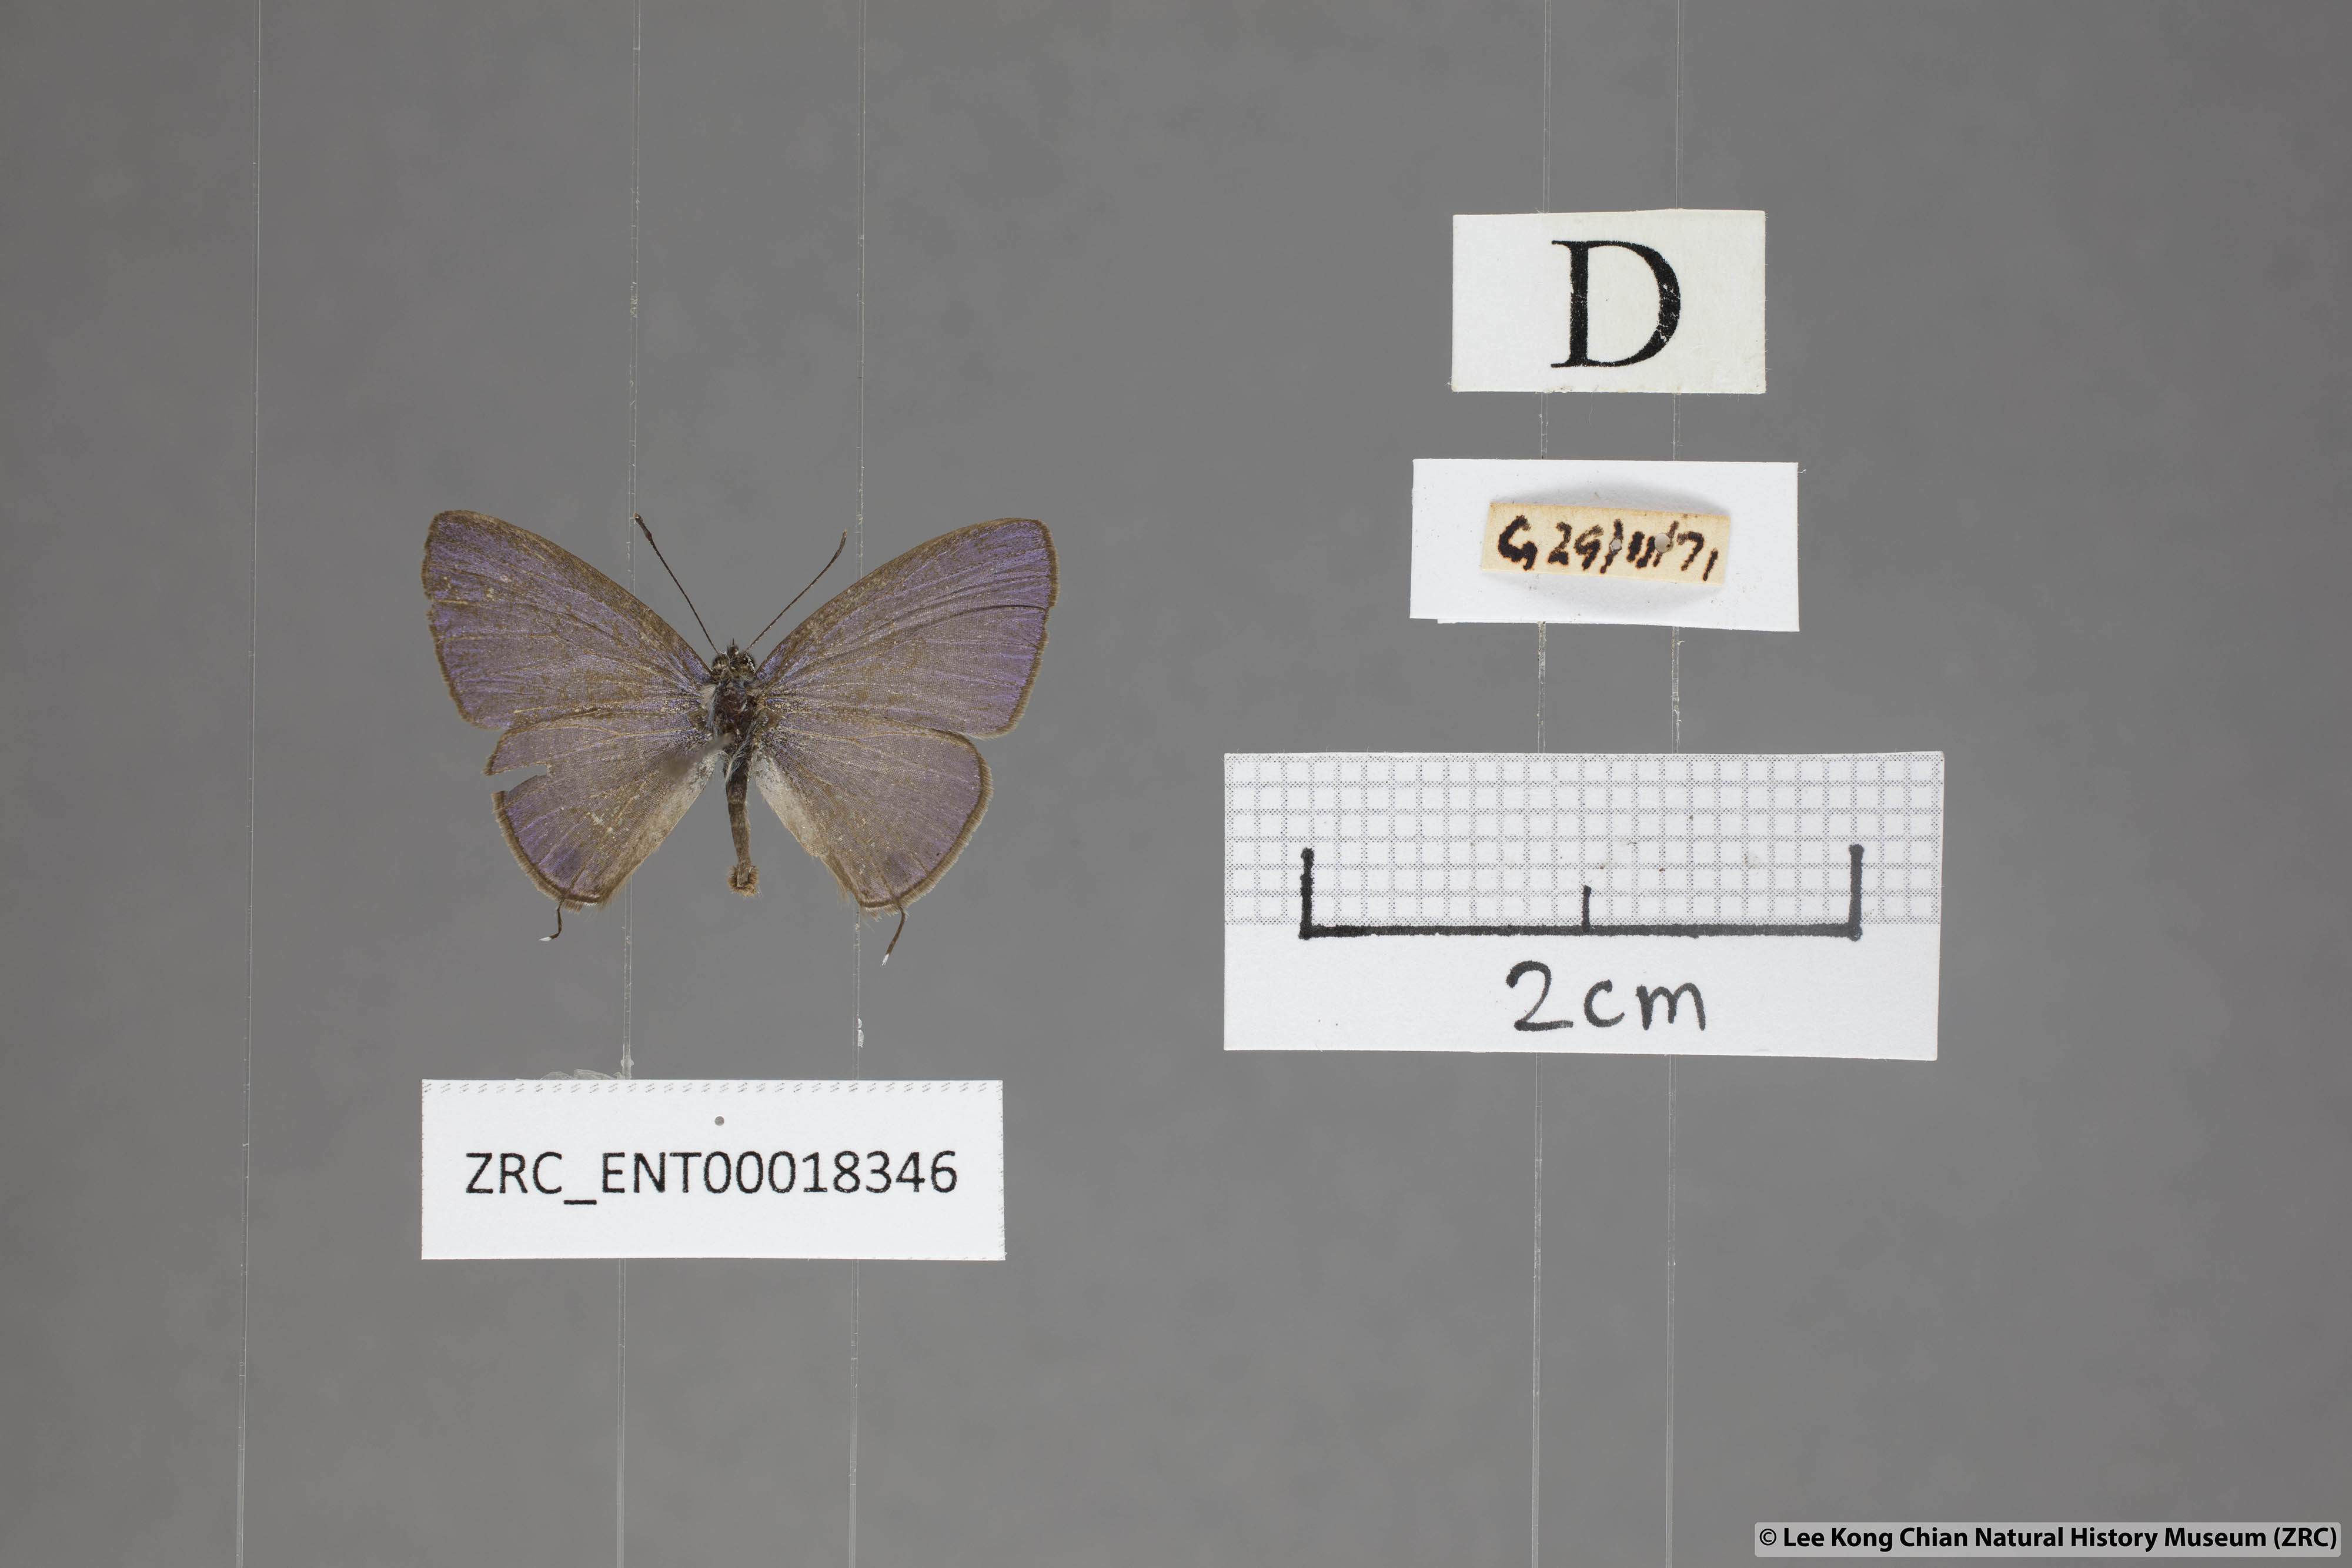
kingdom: Animalia
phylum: Arthropoda
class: Insecta
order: Lepidoptera
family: Lycaenidae
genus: Nacaduba
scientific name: Nacaduba hermus
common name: Pale four-line blue
